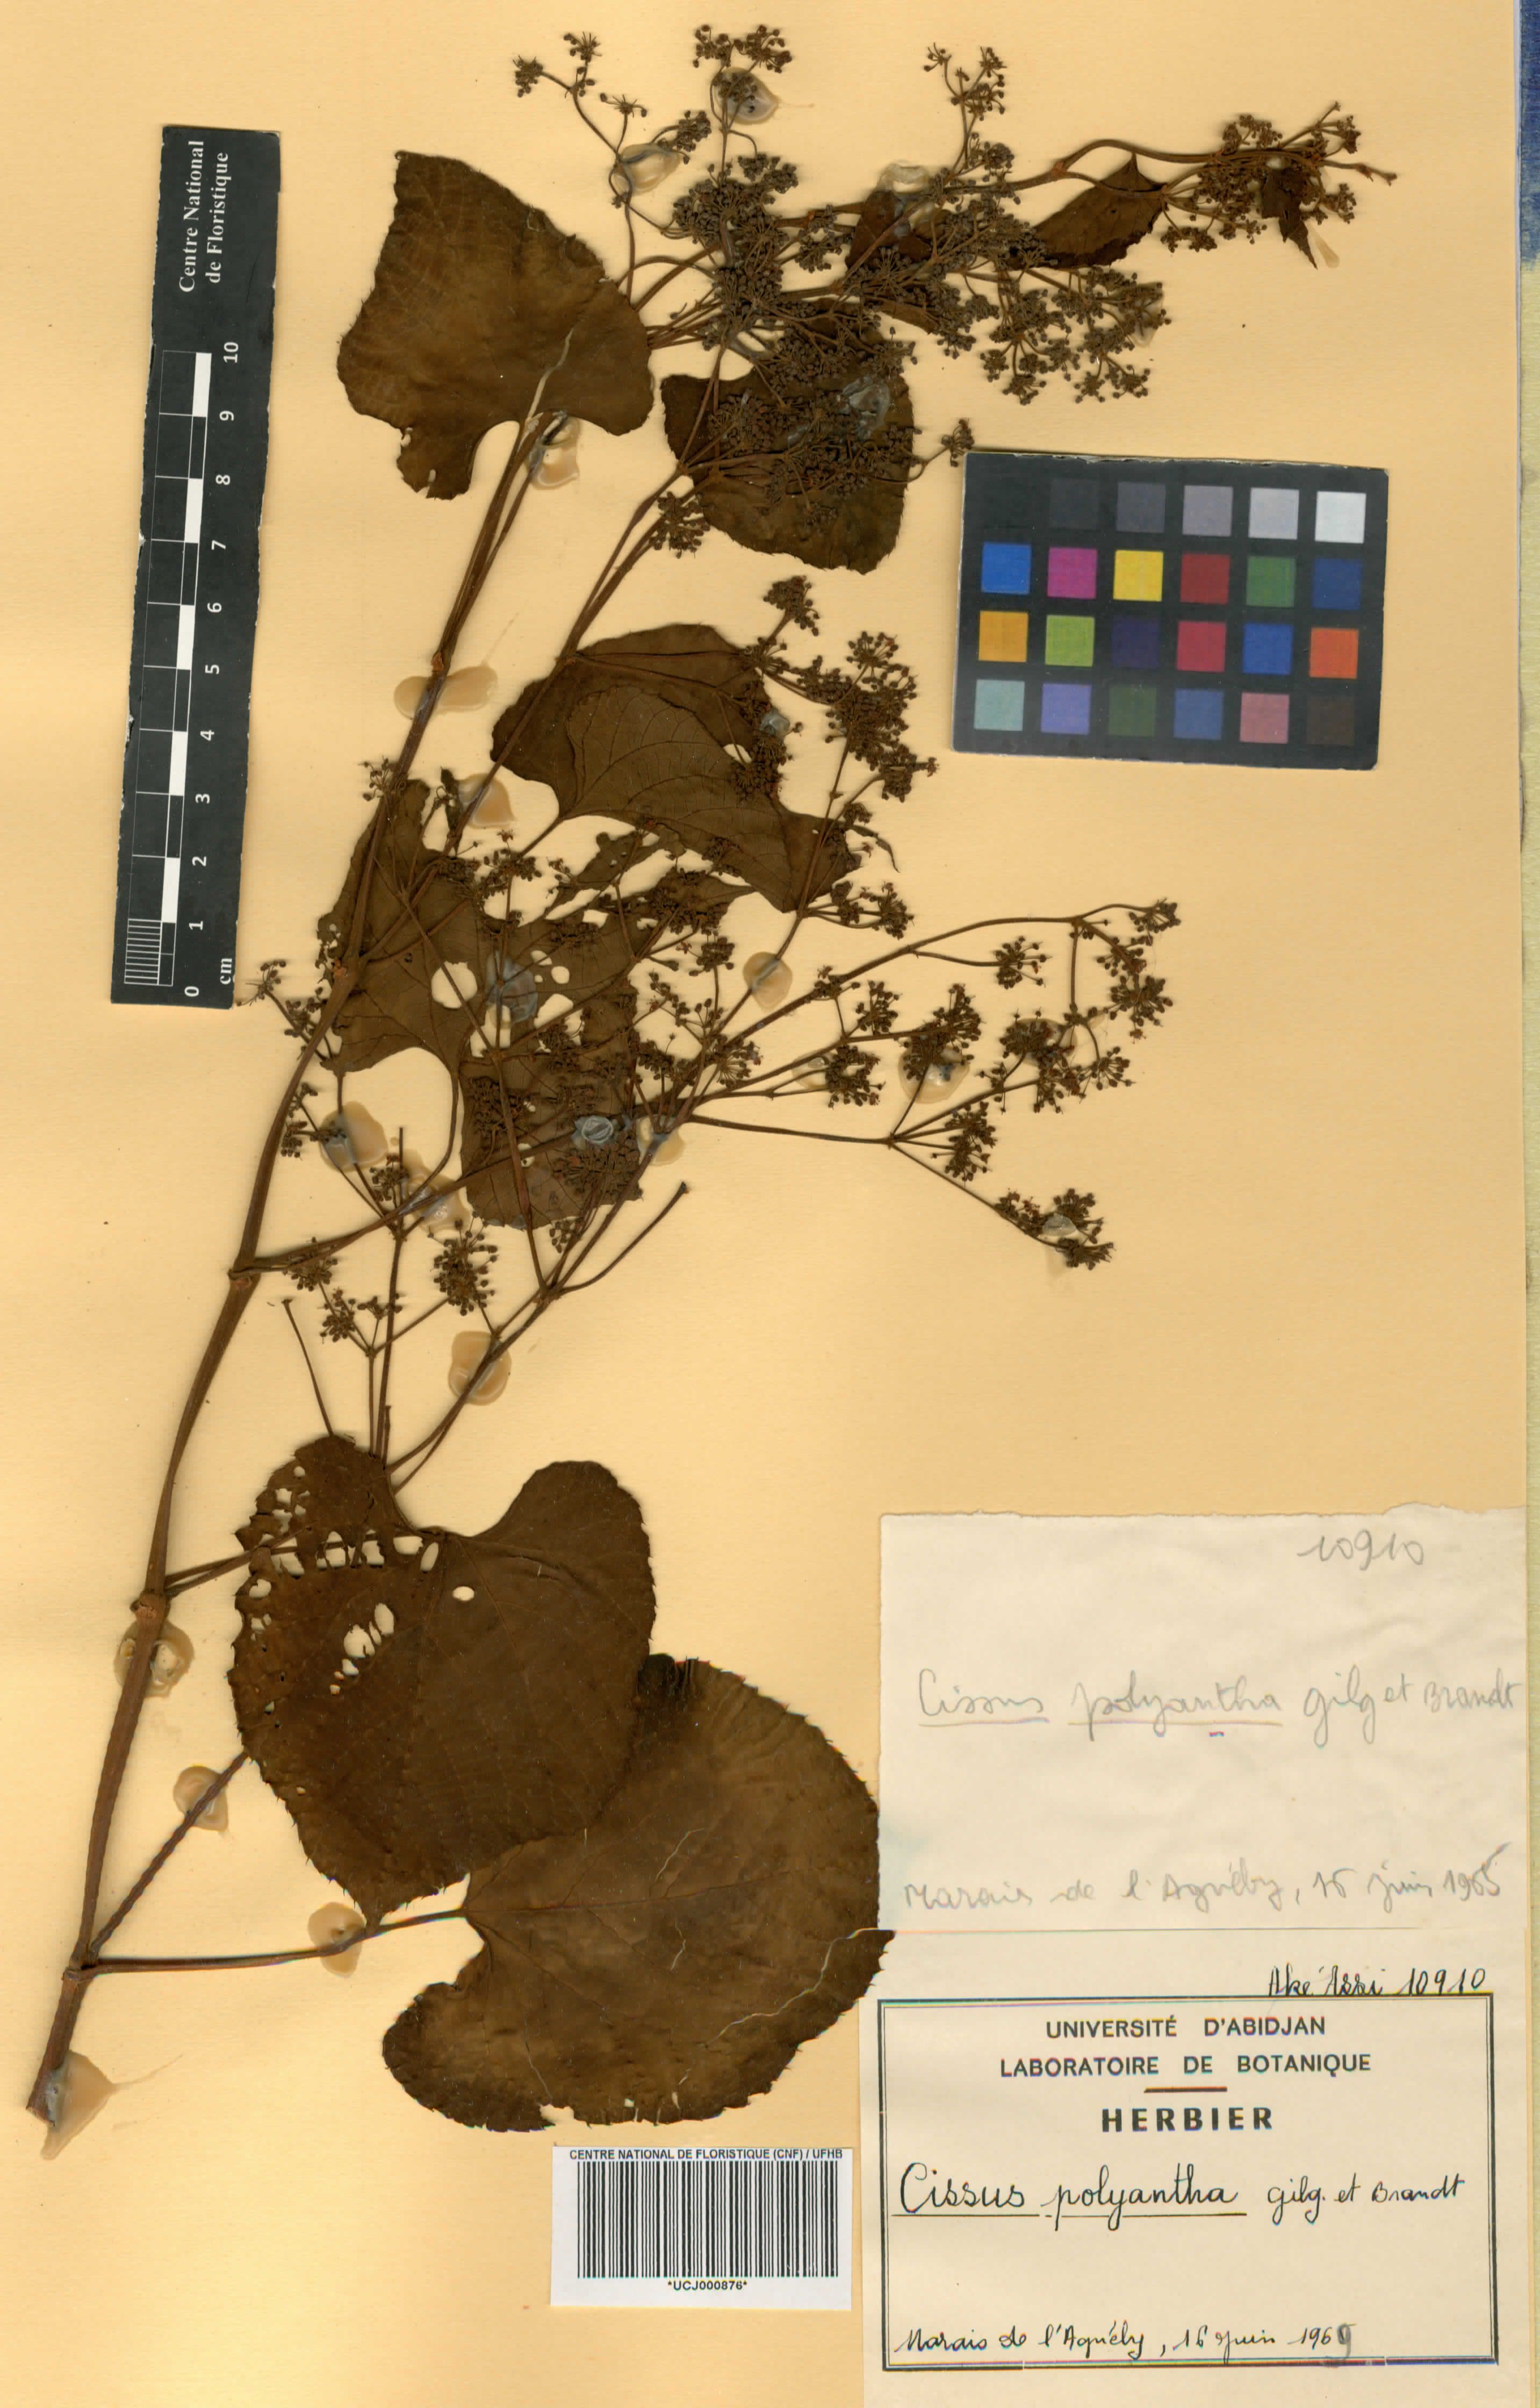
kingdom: Plantae
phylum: Tracheophyta
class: Magnoliopsida
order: Vitales
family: Vitaceae
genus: Cissus
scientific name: Cissus polyantha
